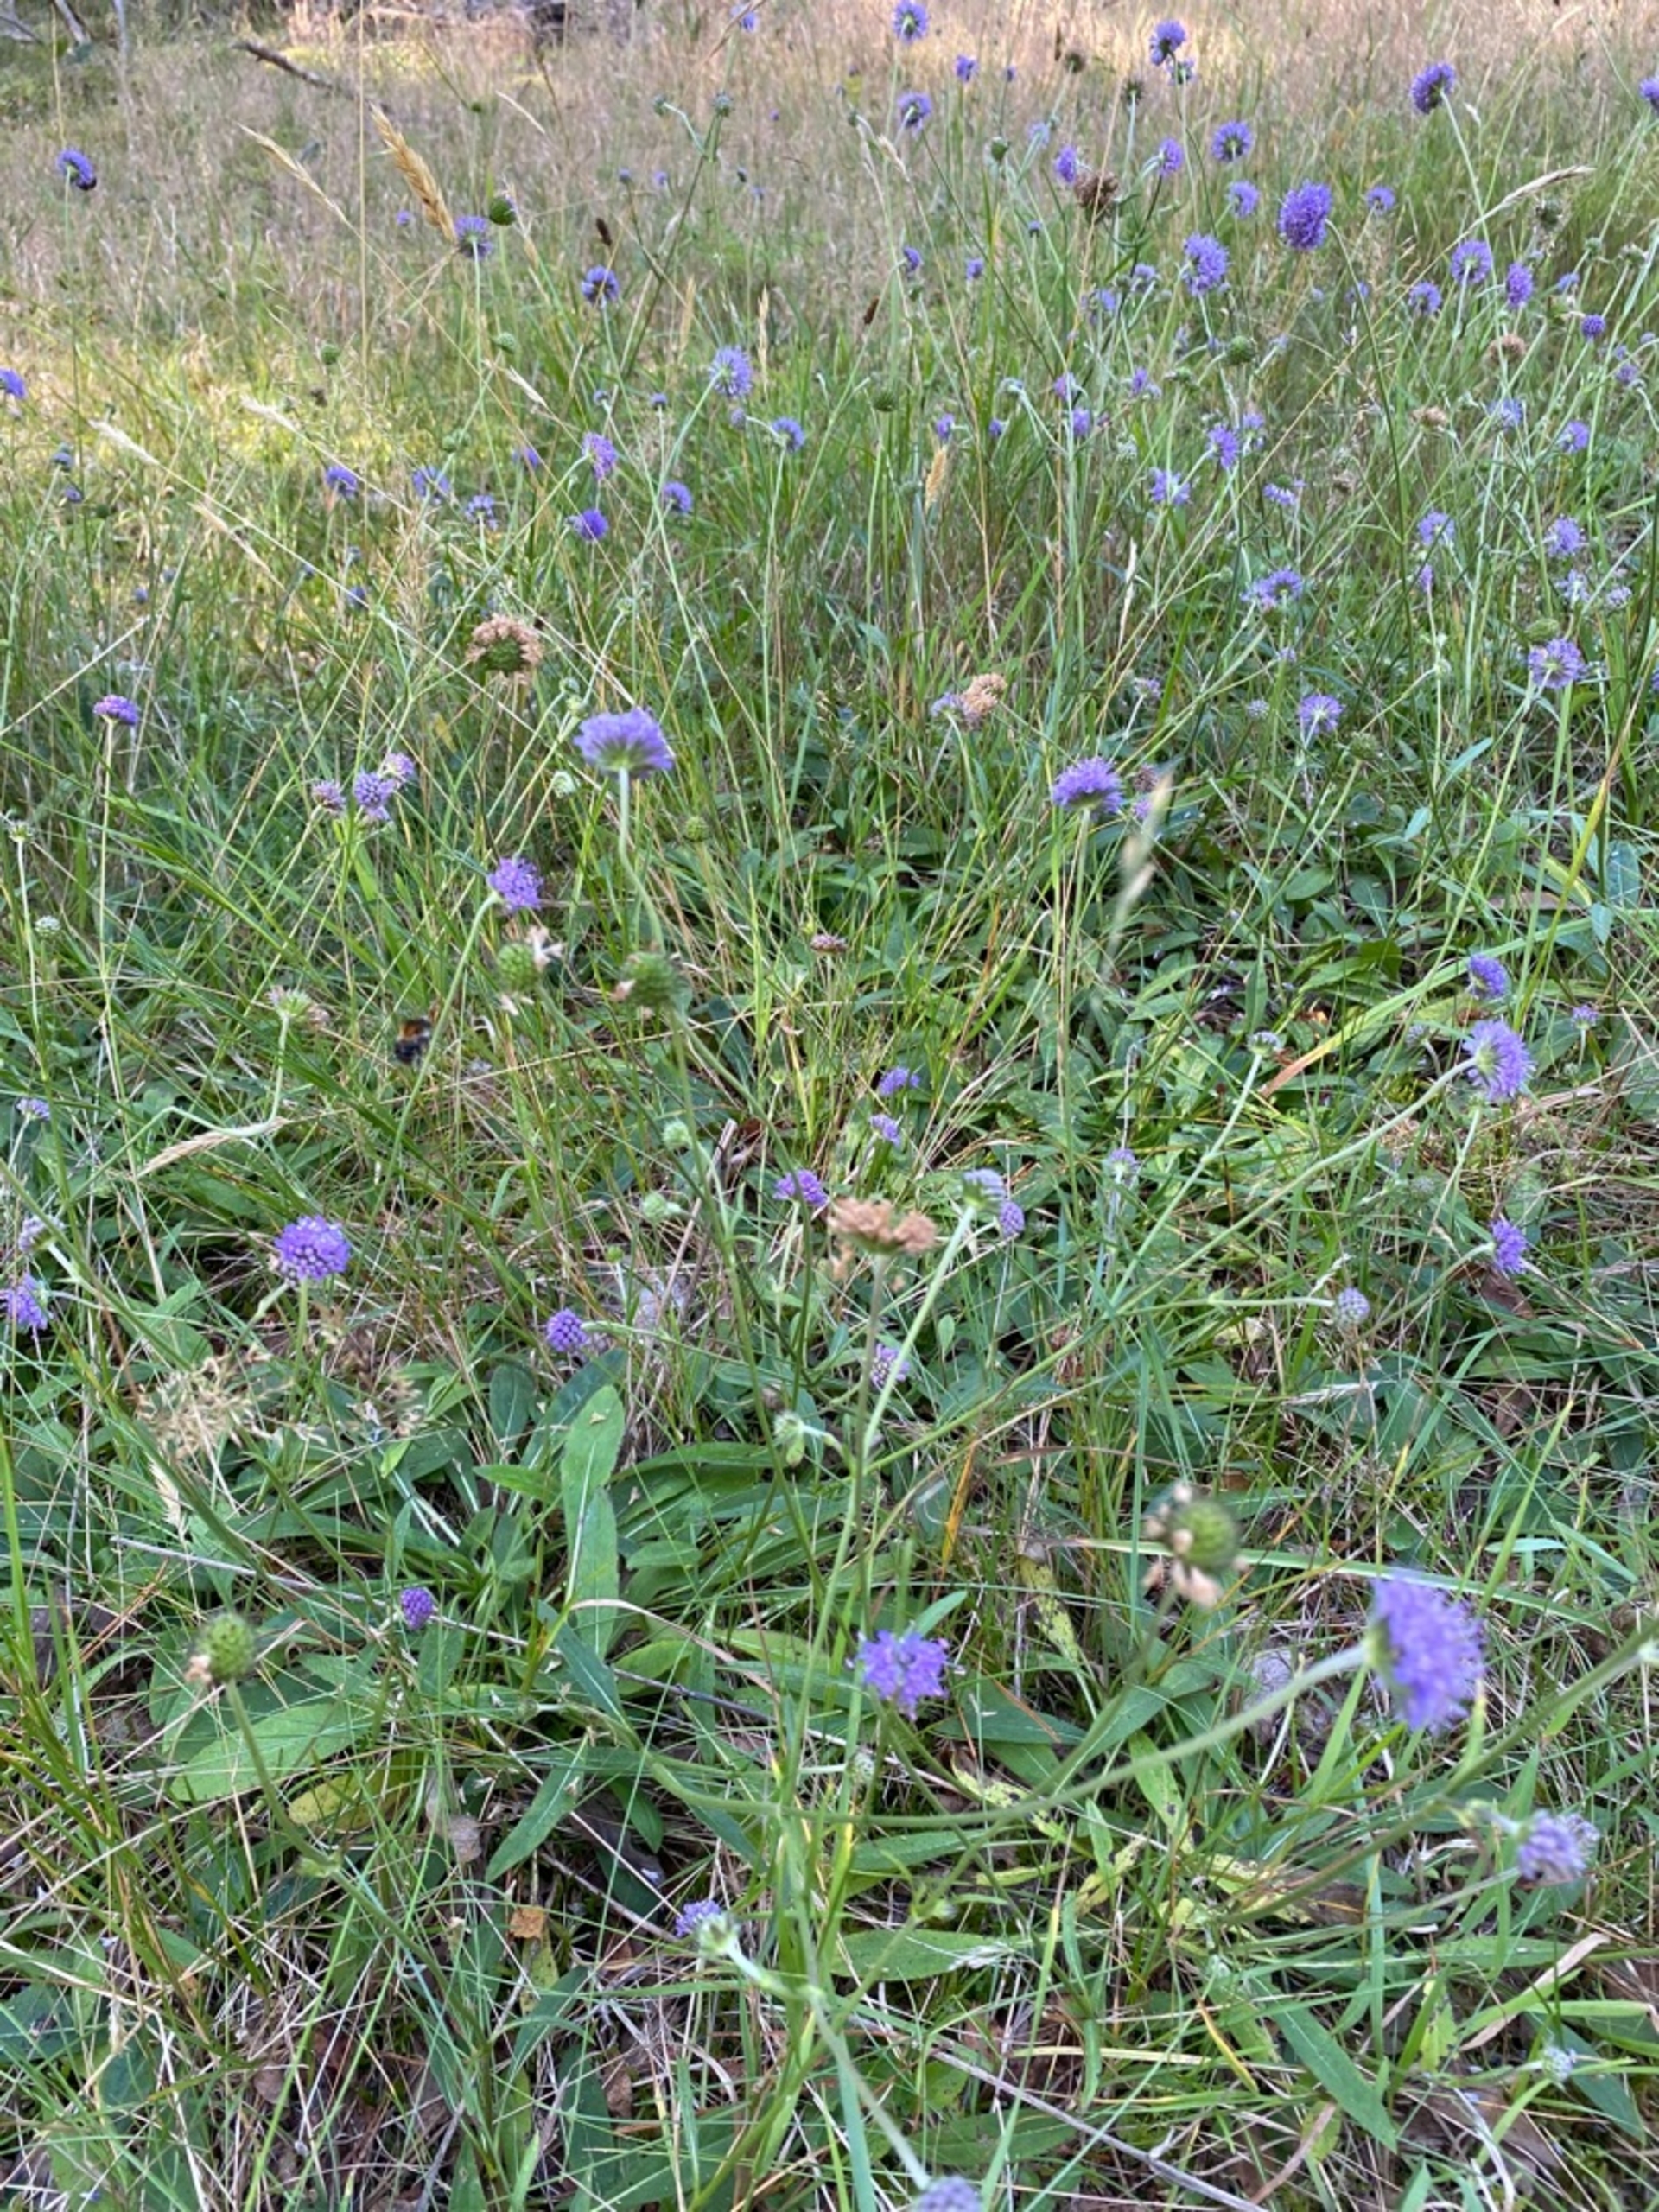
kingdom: Plantae
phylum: Tracheophyta
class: Magnoliopsida
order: Dipsacales
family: Caprifoliaceae
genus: Succisa
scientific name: Succisa pratensis
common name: Djævelsbid
